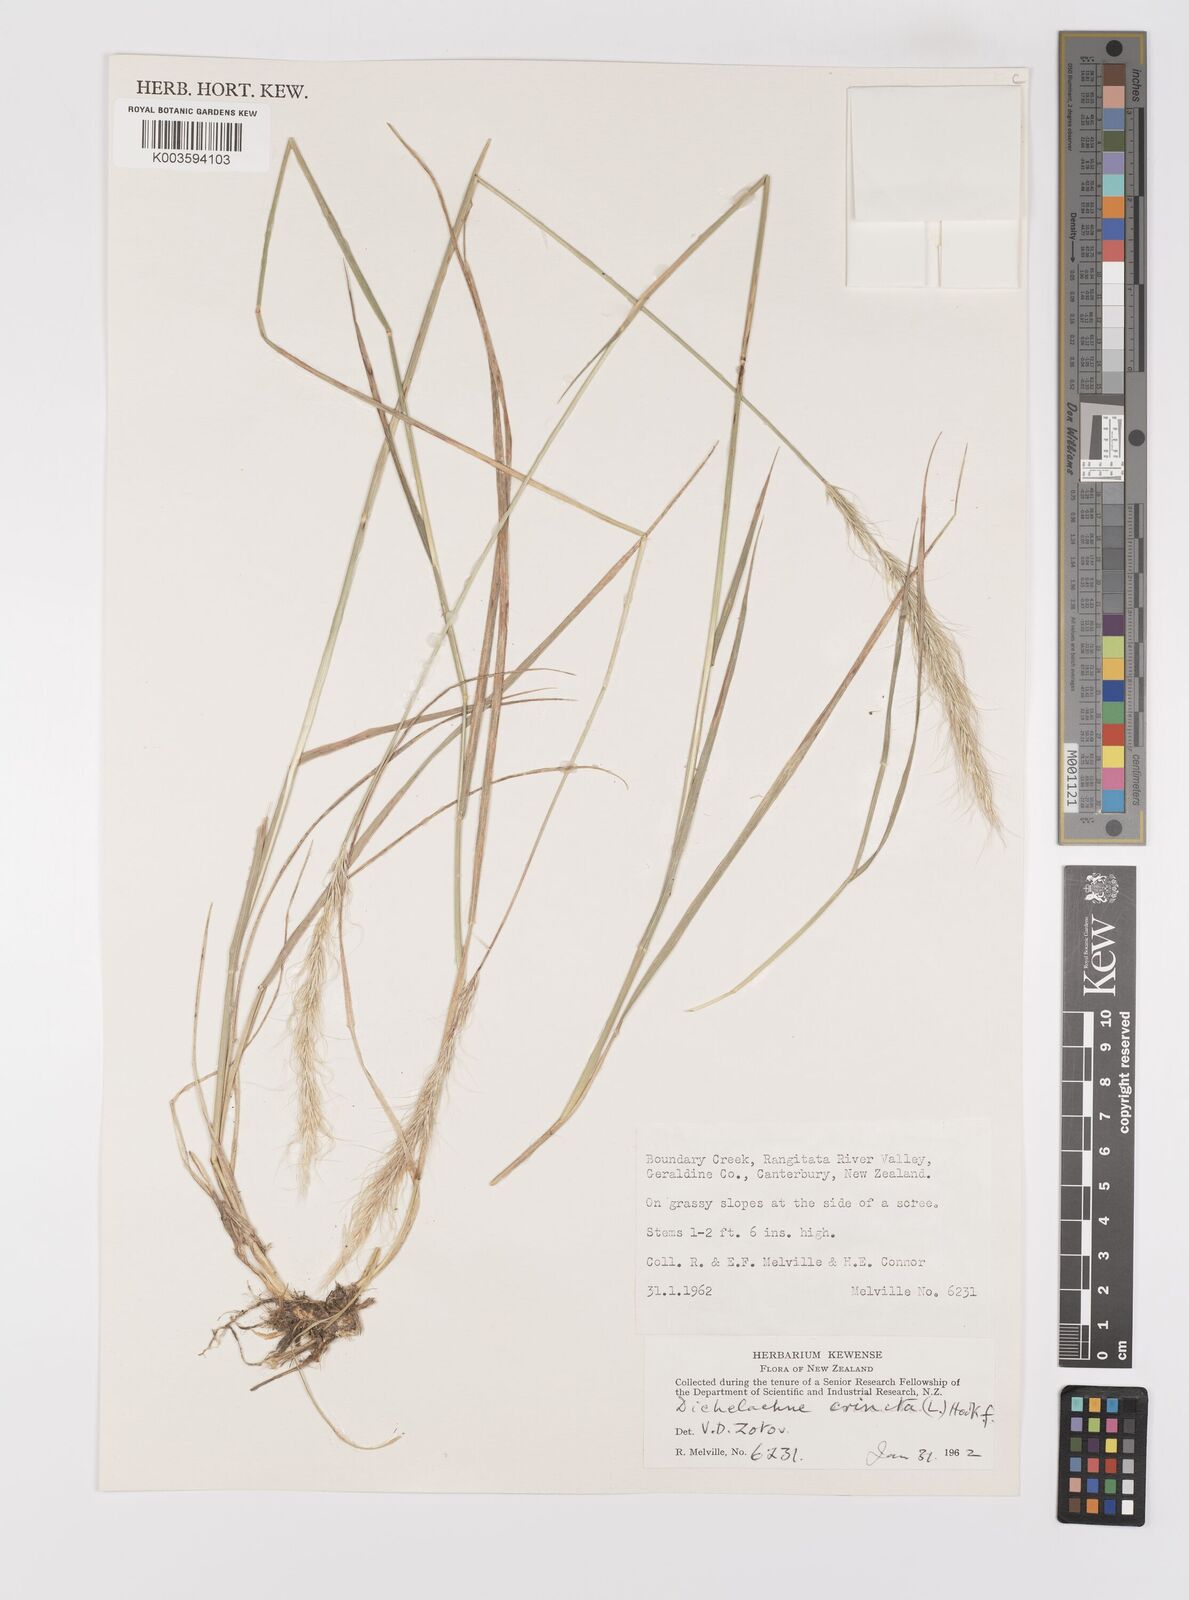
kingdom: Plantae
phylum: Tracheophyta
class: Liliopsida
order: Poales
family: Poaceae
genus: Dichelachne
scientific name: Dichelachne crinita
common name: Clovenfoot plumegrass
